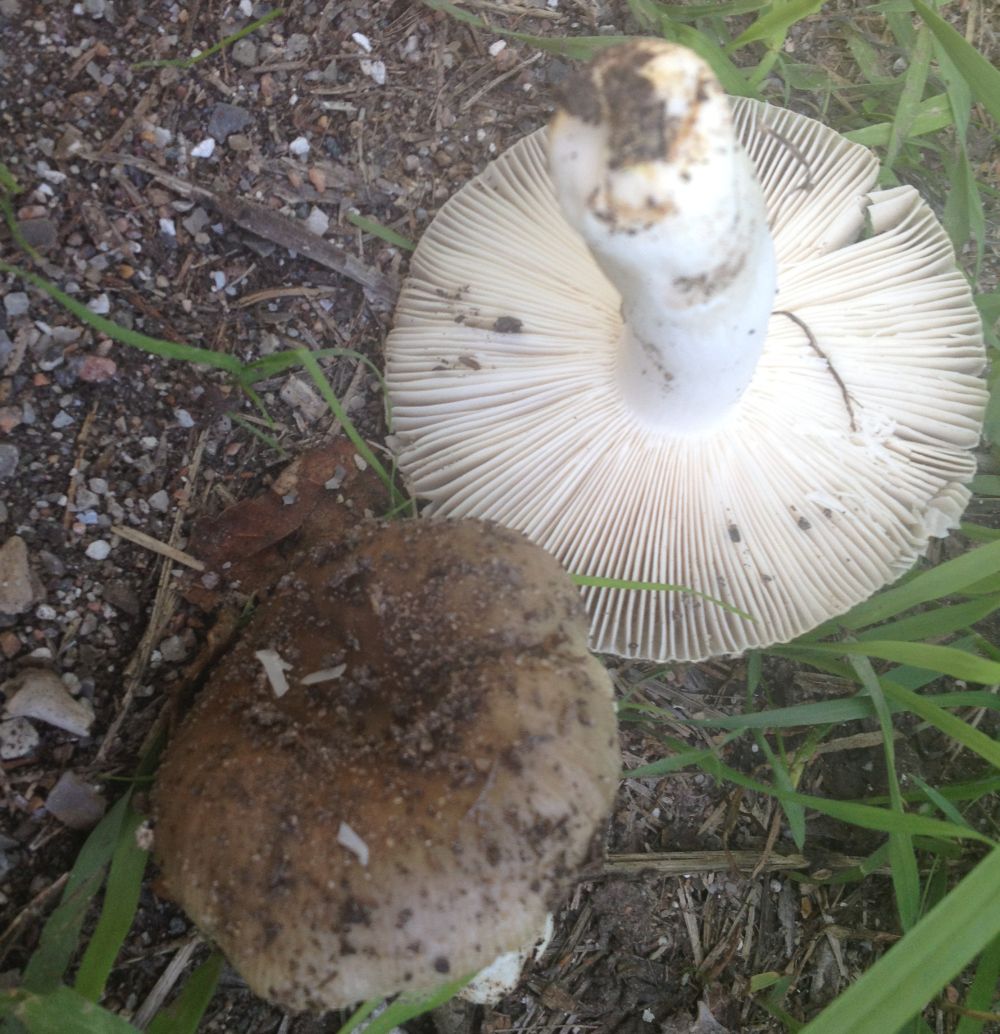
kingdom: Fungi
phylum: Basidiomycota
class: Agaricomycetes
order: Russulales
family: Russulaceae
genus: Russula
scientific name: Russula
